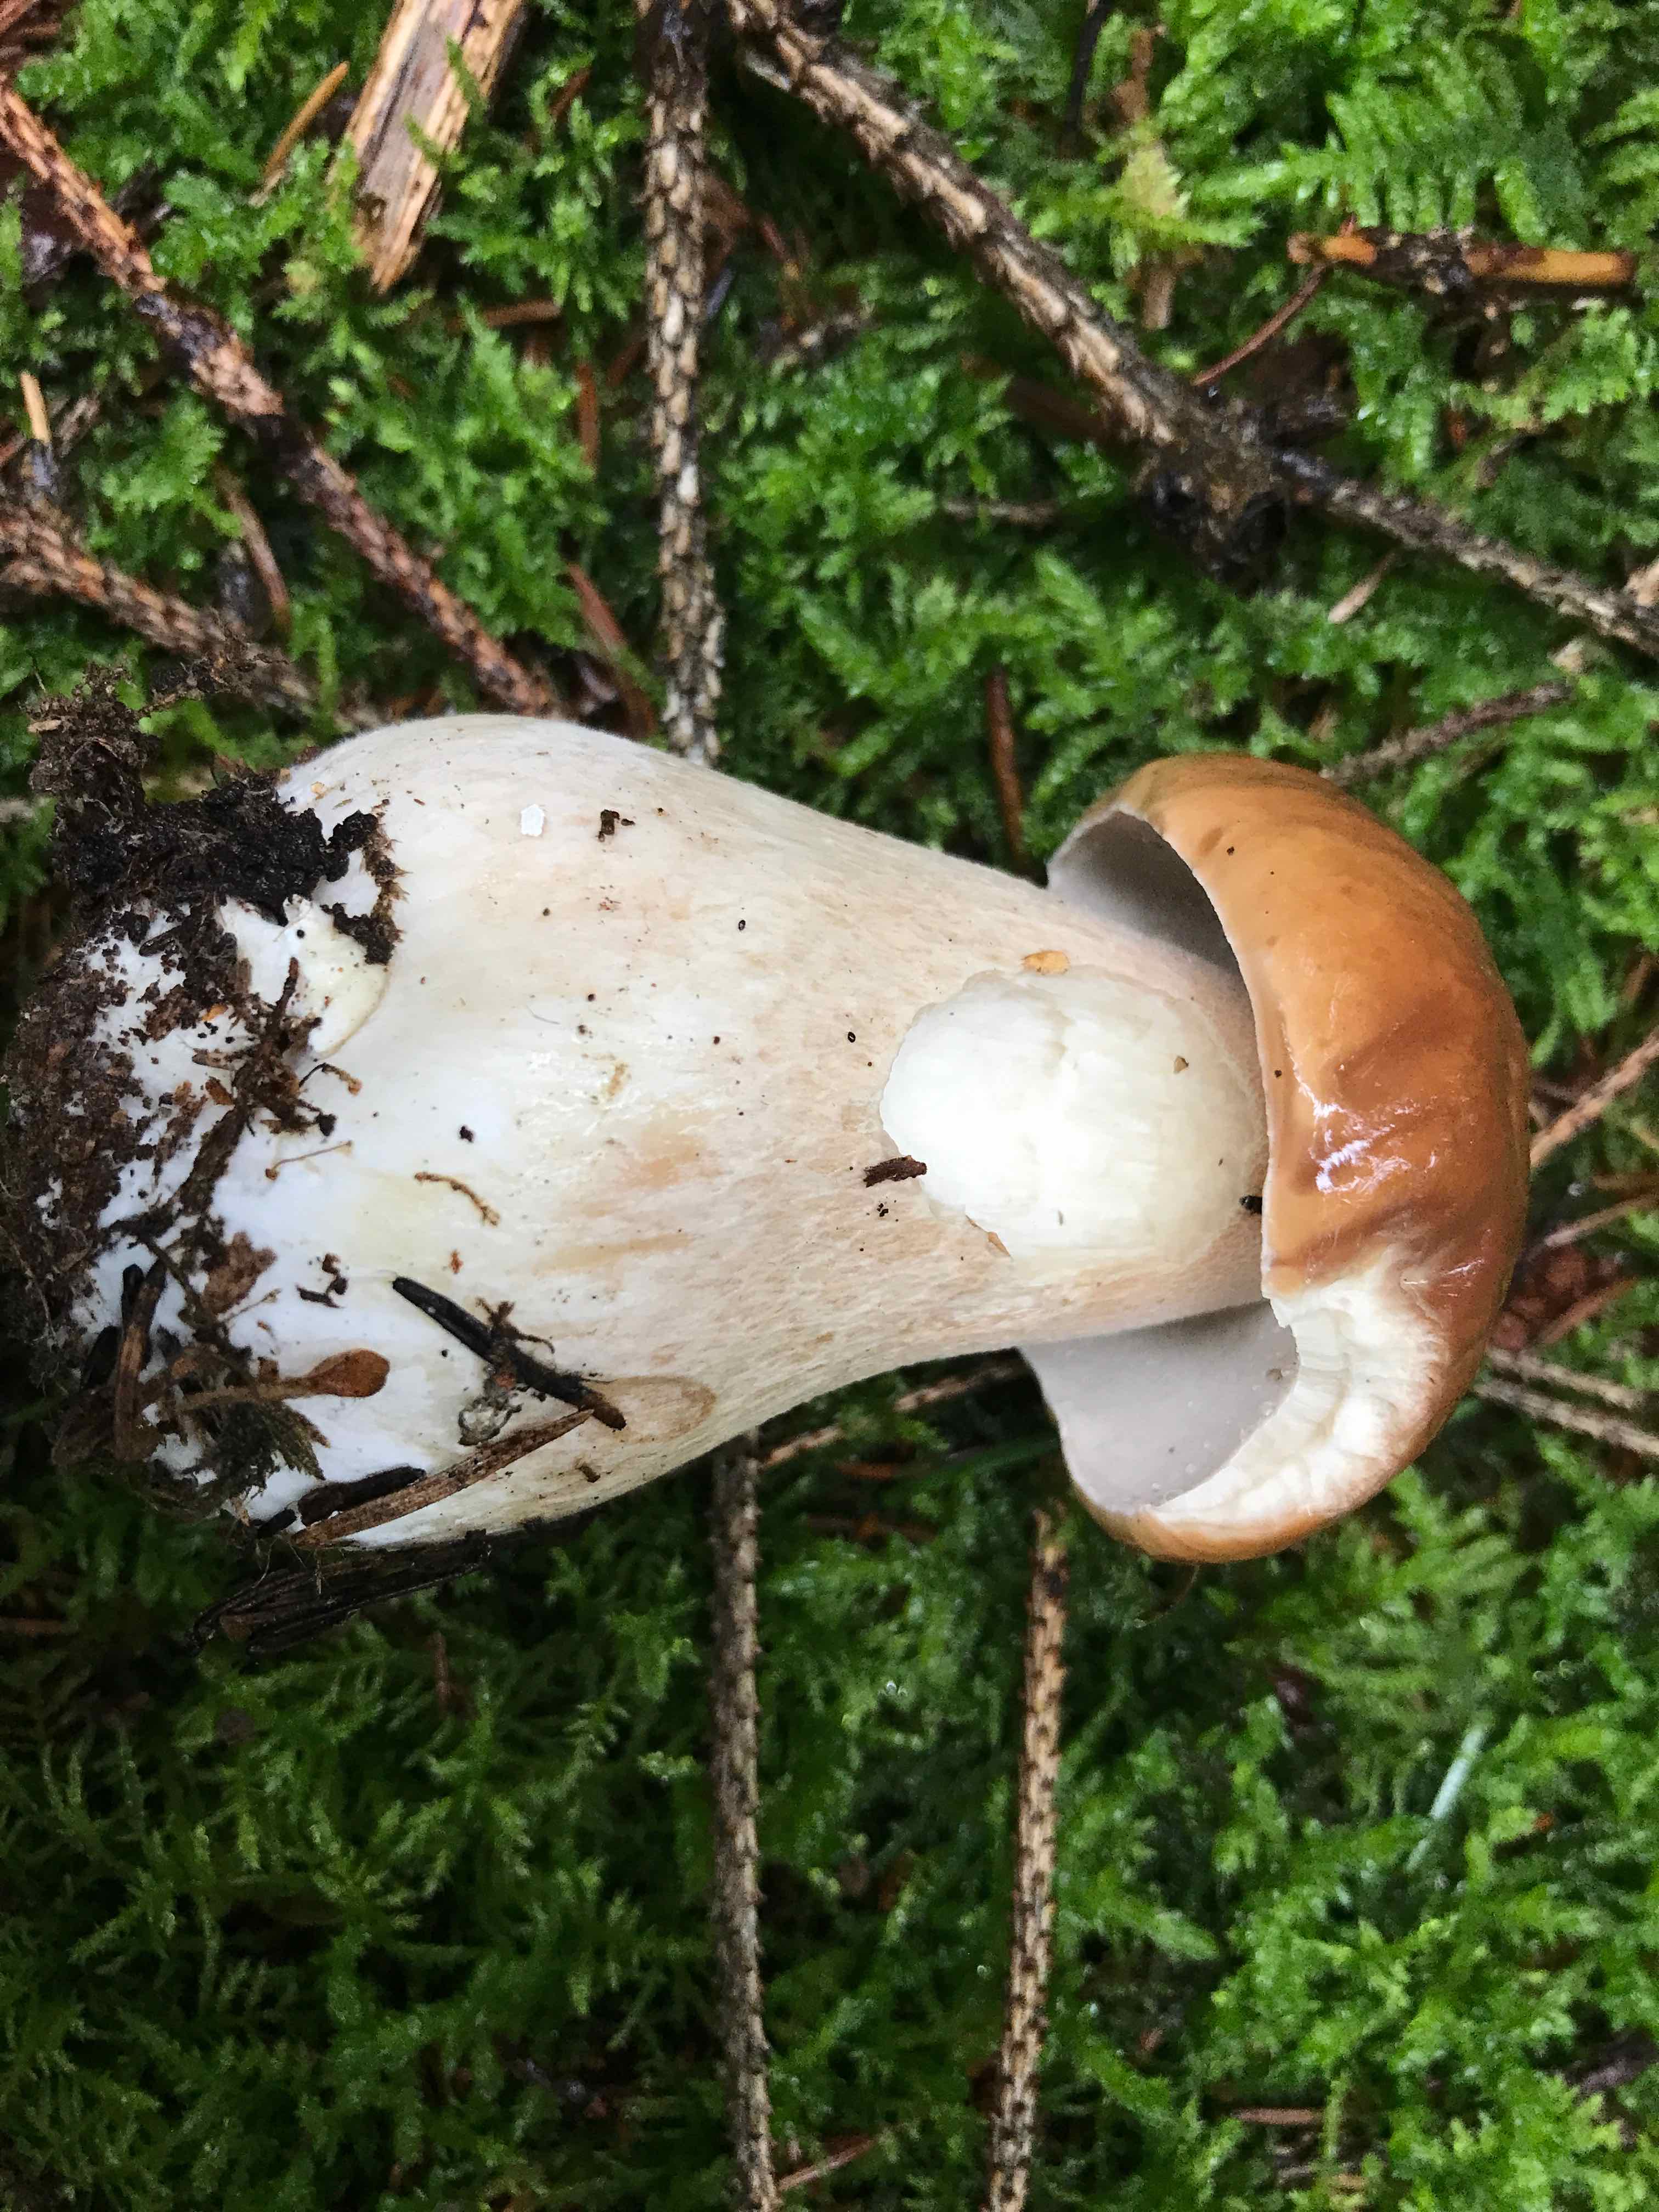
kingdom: Fungi
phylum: Basidiomycota
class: Agaricomycetes
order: Boletales
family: Boletaceae
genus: Boletus
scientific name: Boletus edulis
